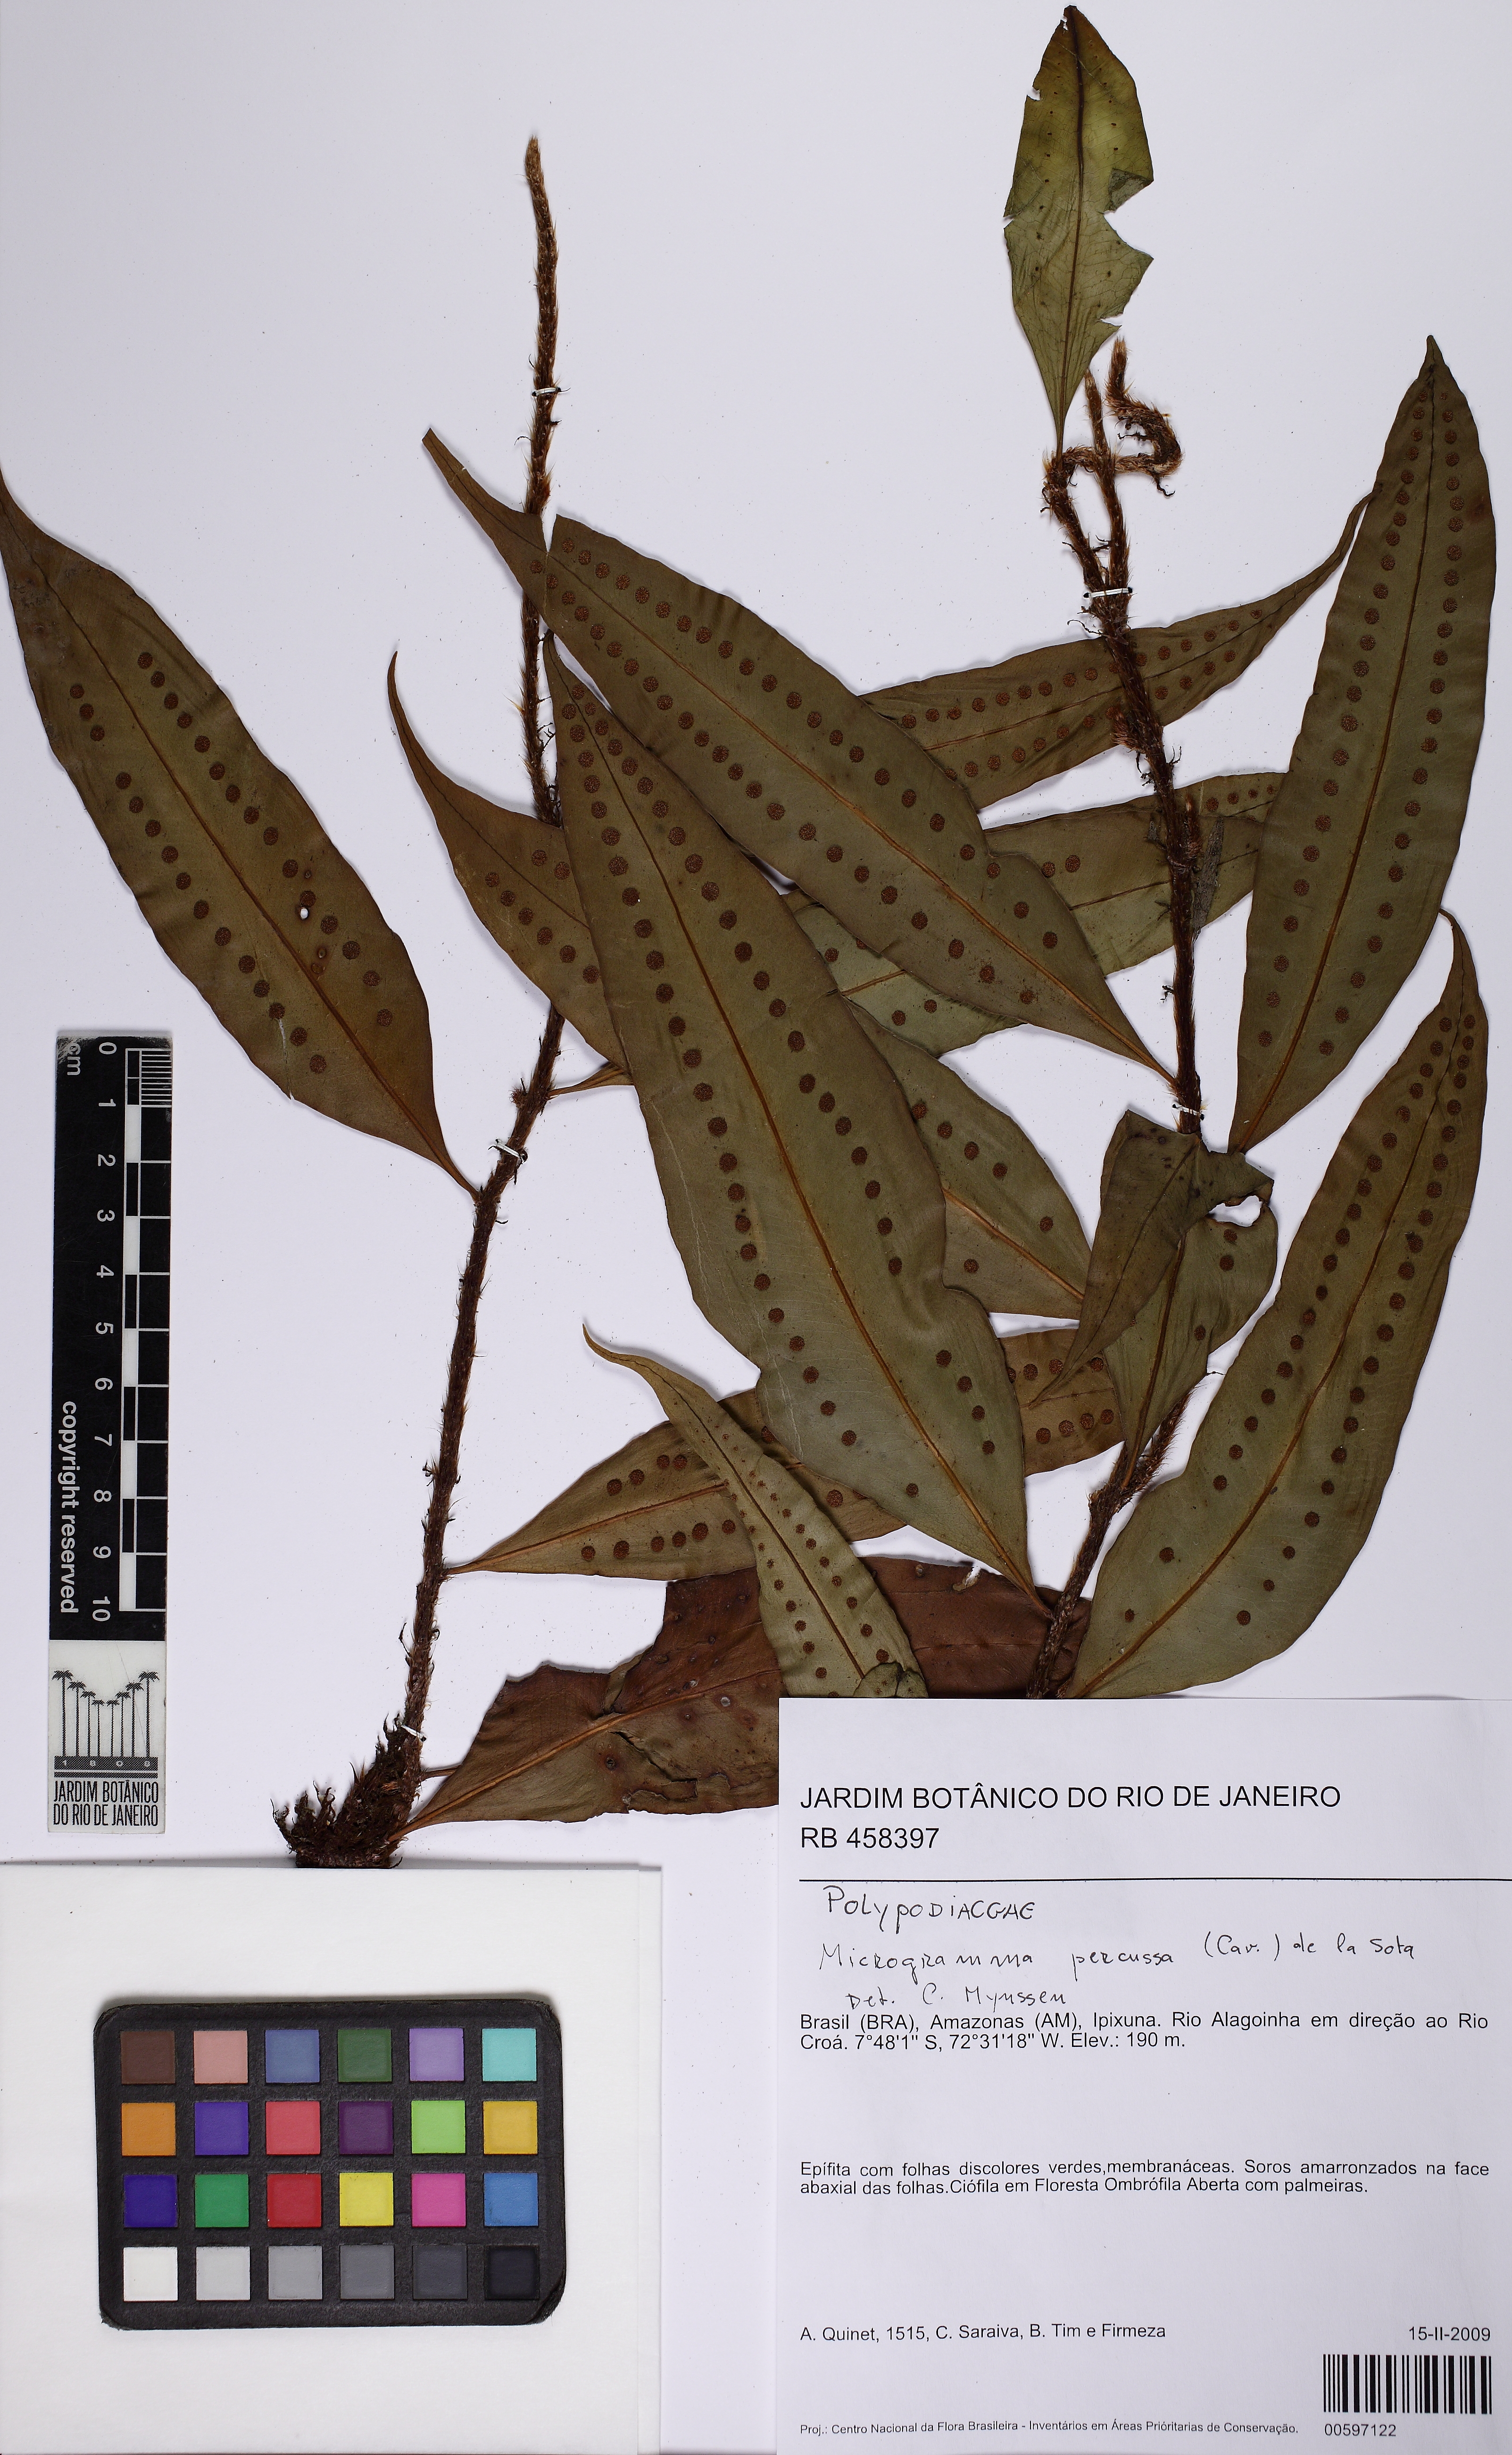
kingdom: Plantae
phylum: Tracheophyta
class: Polypodiopsida
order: Polypodiales
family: Polypodiaceae
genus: Microgramma
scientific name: Microgramma thurnii
